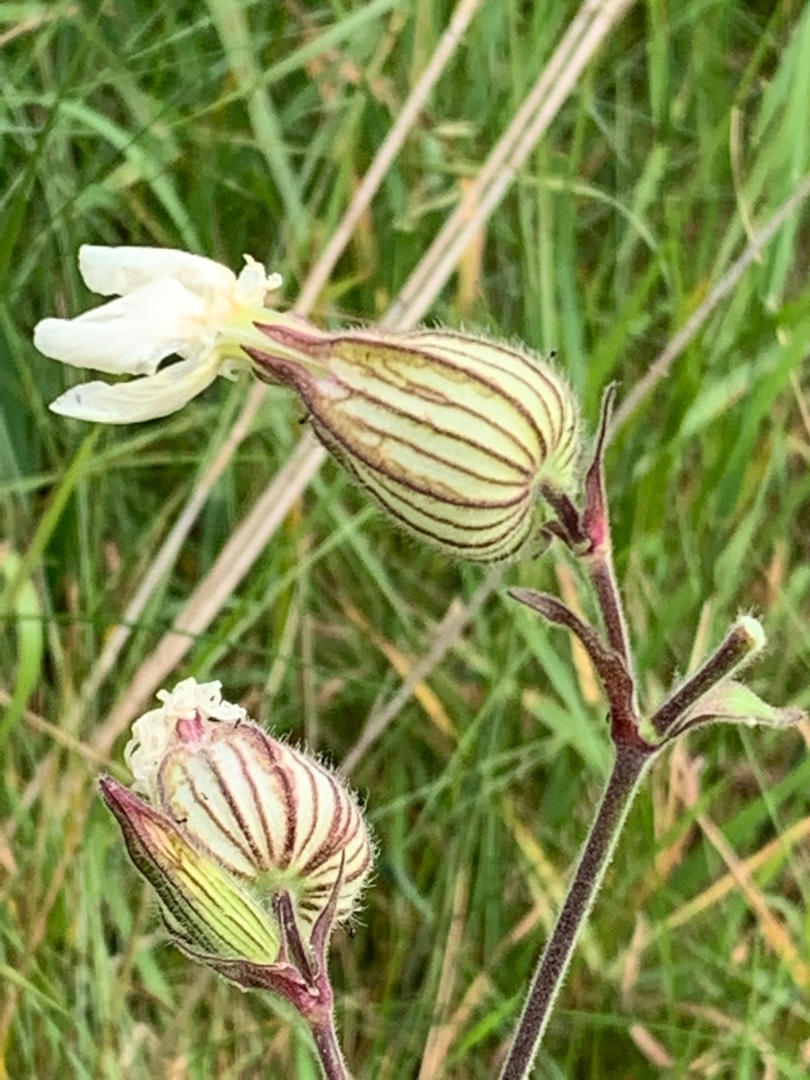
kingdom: Plantae
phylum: Tracheophyta
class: Magnoliopsida
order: Caryophyllales
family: Caryophyllaceae
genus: Silene
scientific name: Silene latifolia
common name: Aftenpragtstjerne
